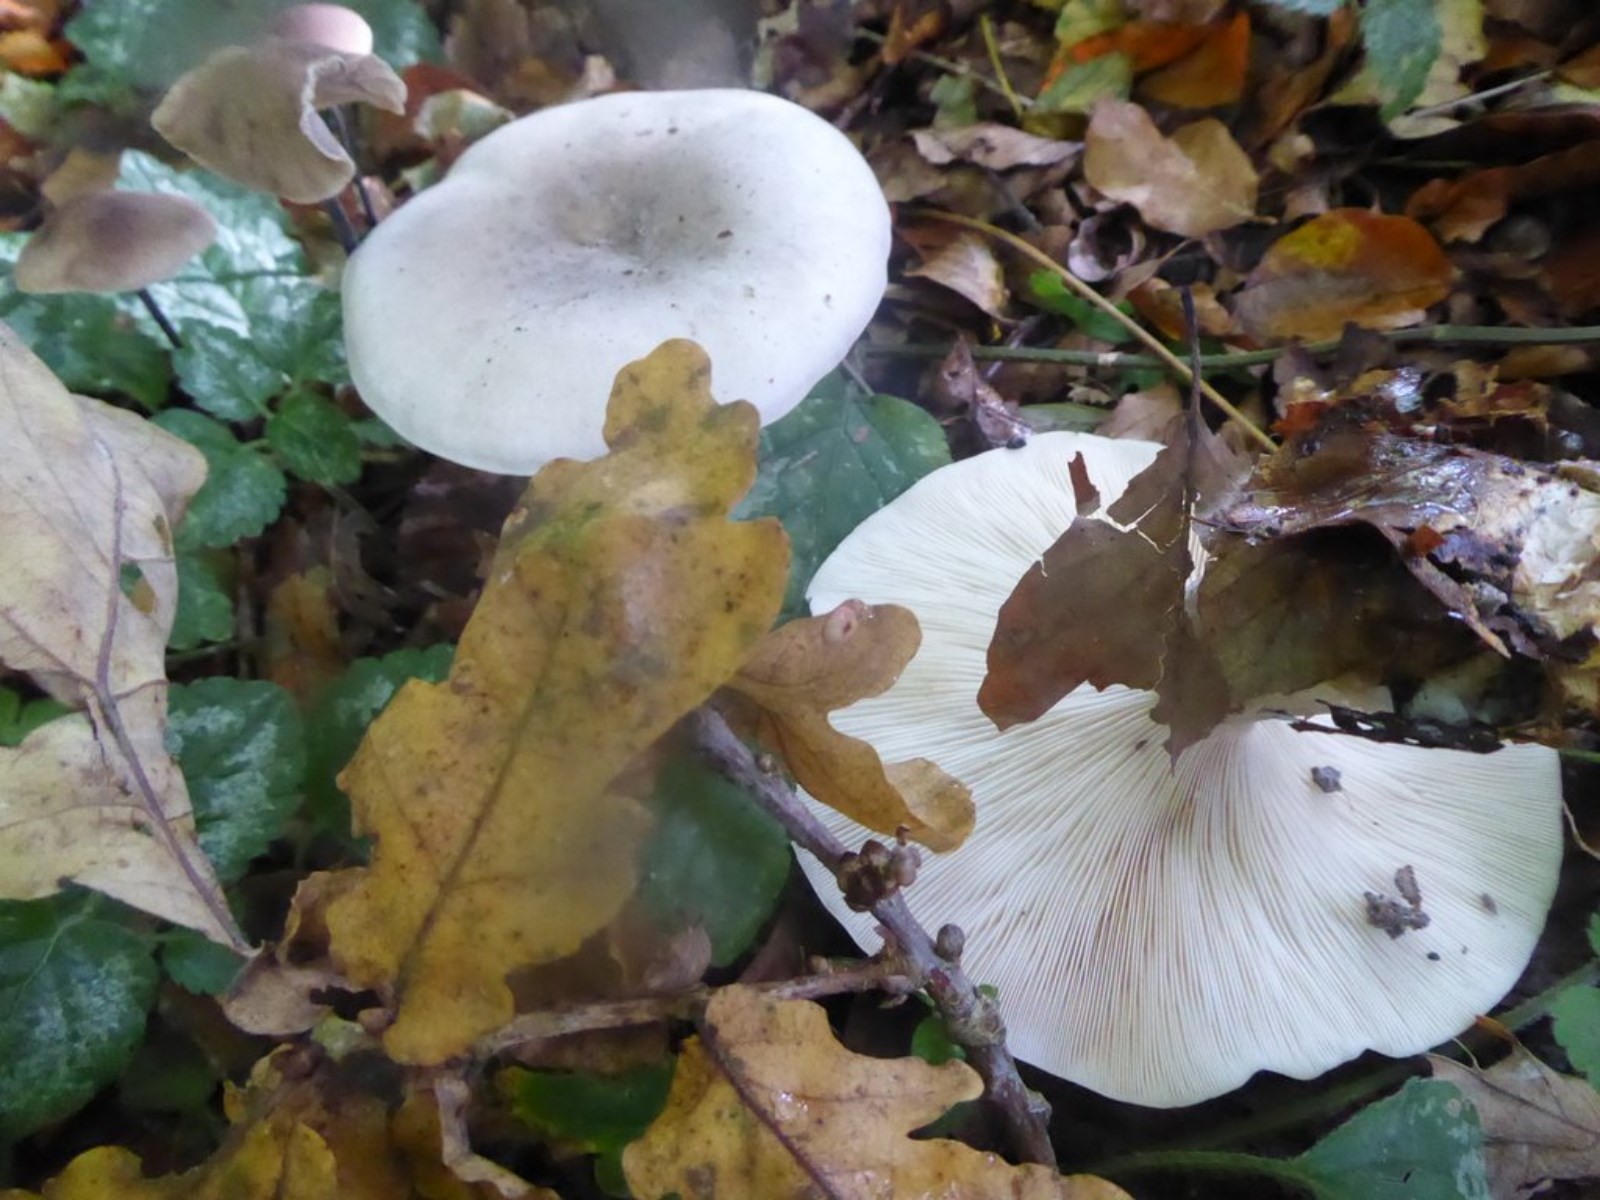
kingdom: Fungi
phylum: Basidiomycota
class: Agaricomycetes
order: Agaricales
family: Tricholomataceae
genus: Clitocybe
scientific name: Clitocybe odora
